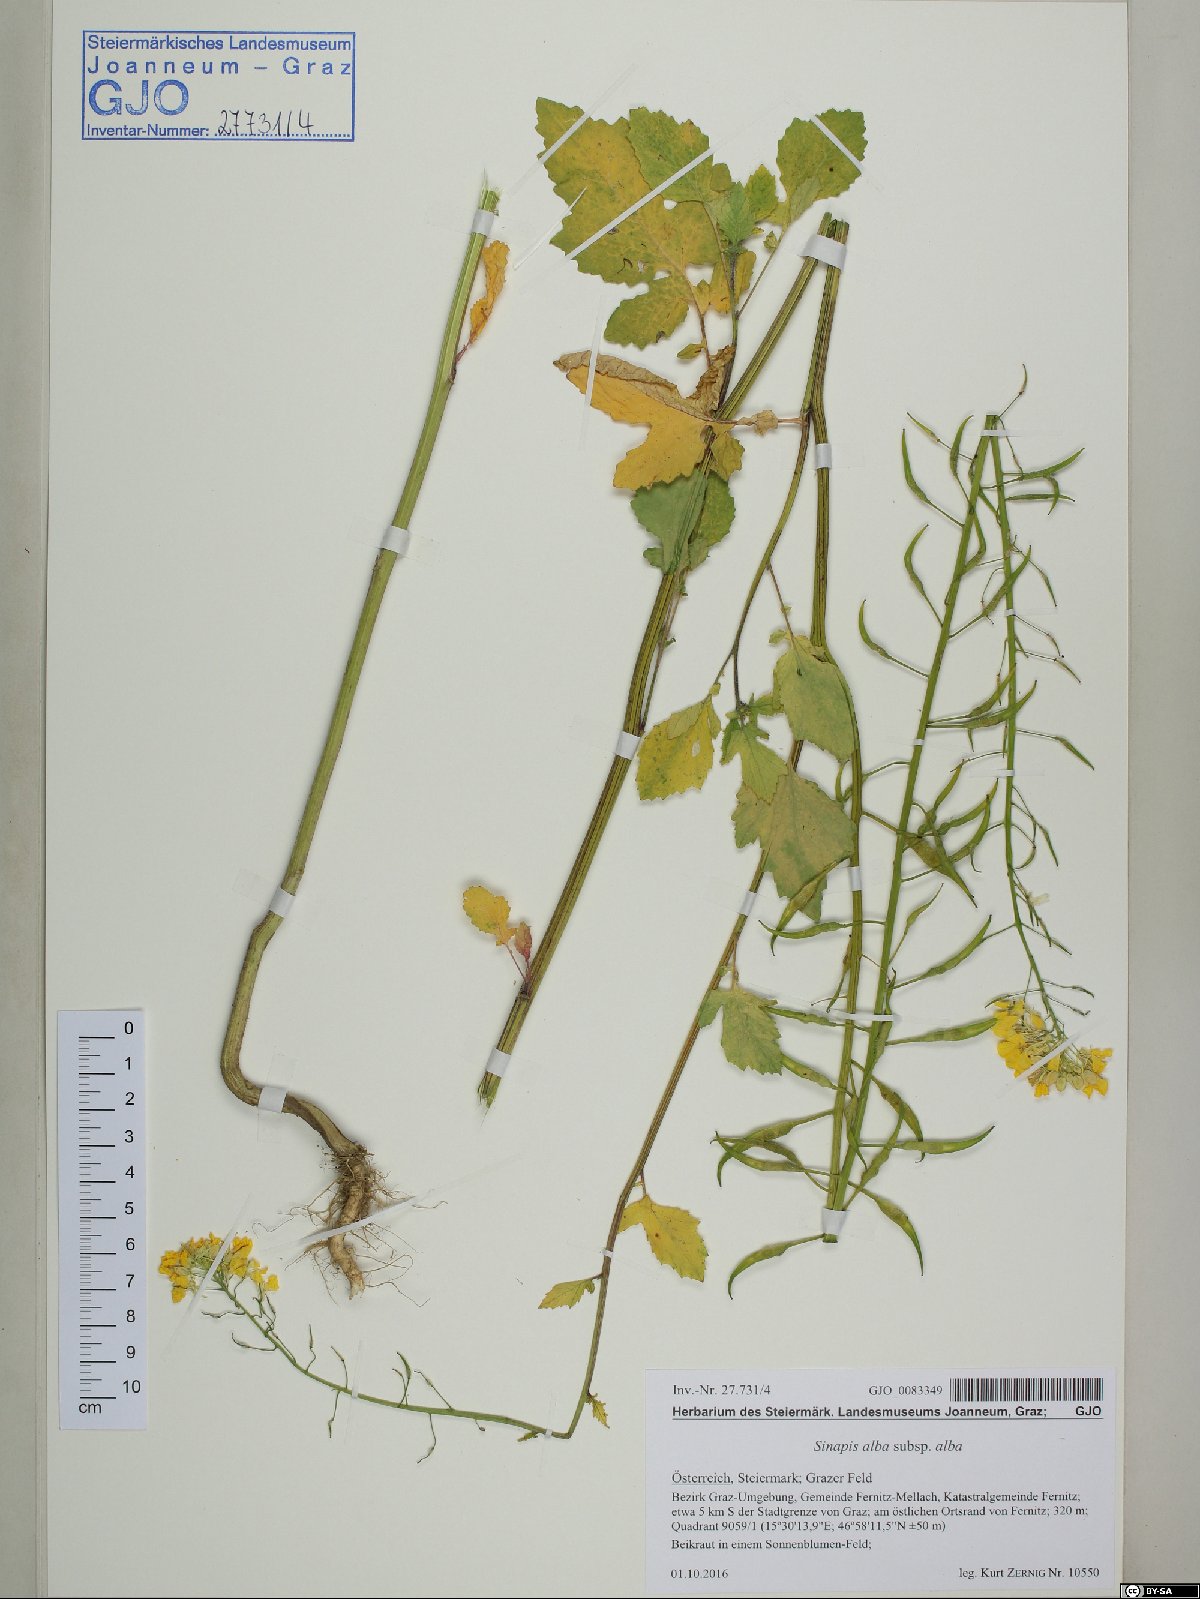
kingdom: Plantae
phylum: Tracheophyta
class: Magnoliopsida
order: Brassicales
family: Brassicaceae
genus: Sinapis
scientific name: Sinapis alba
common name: White mustard
